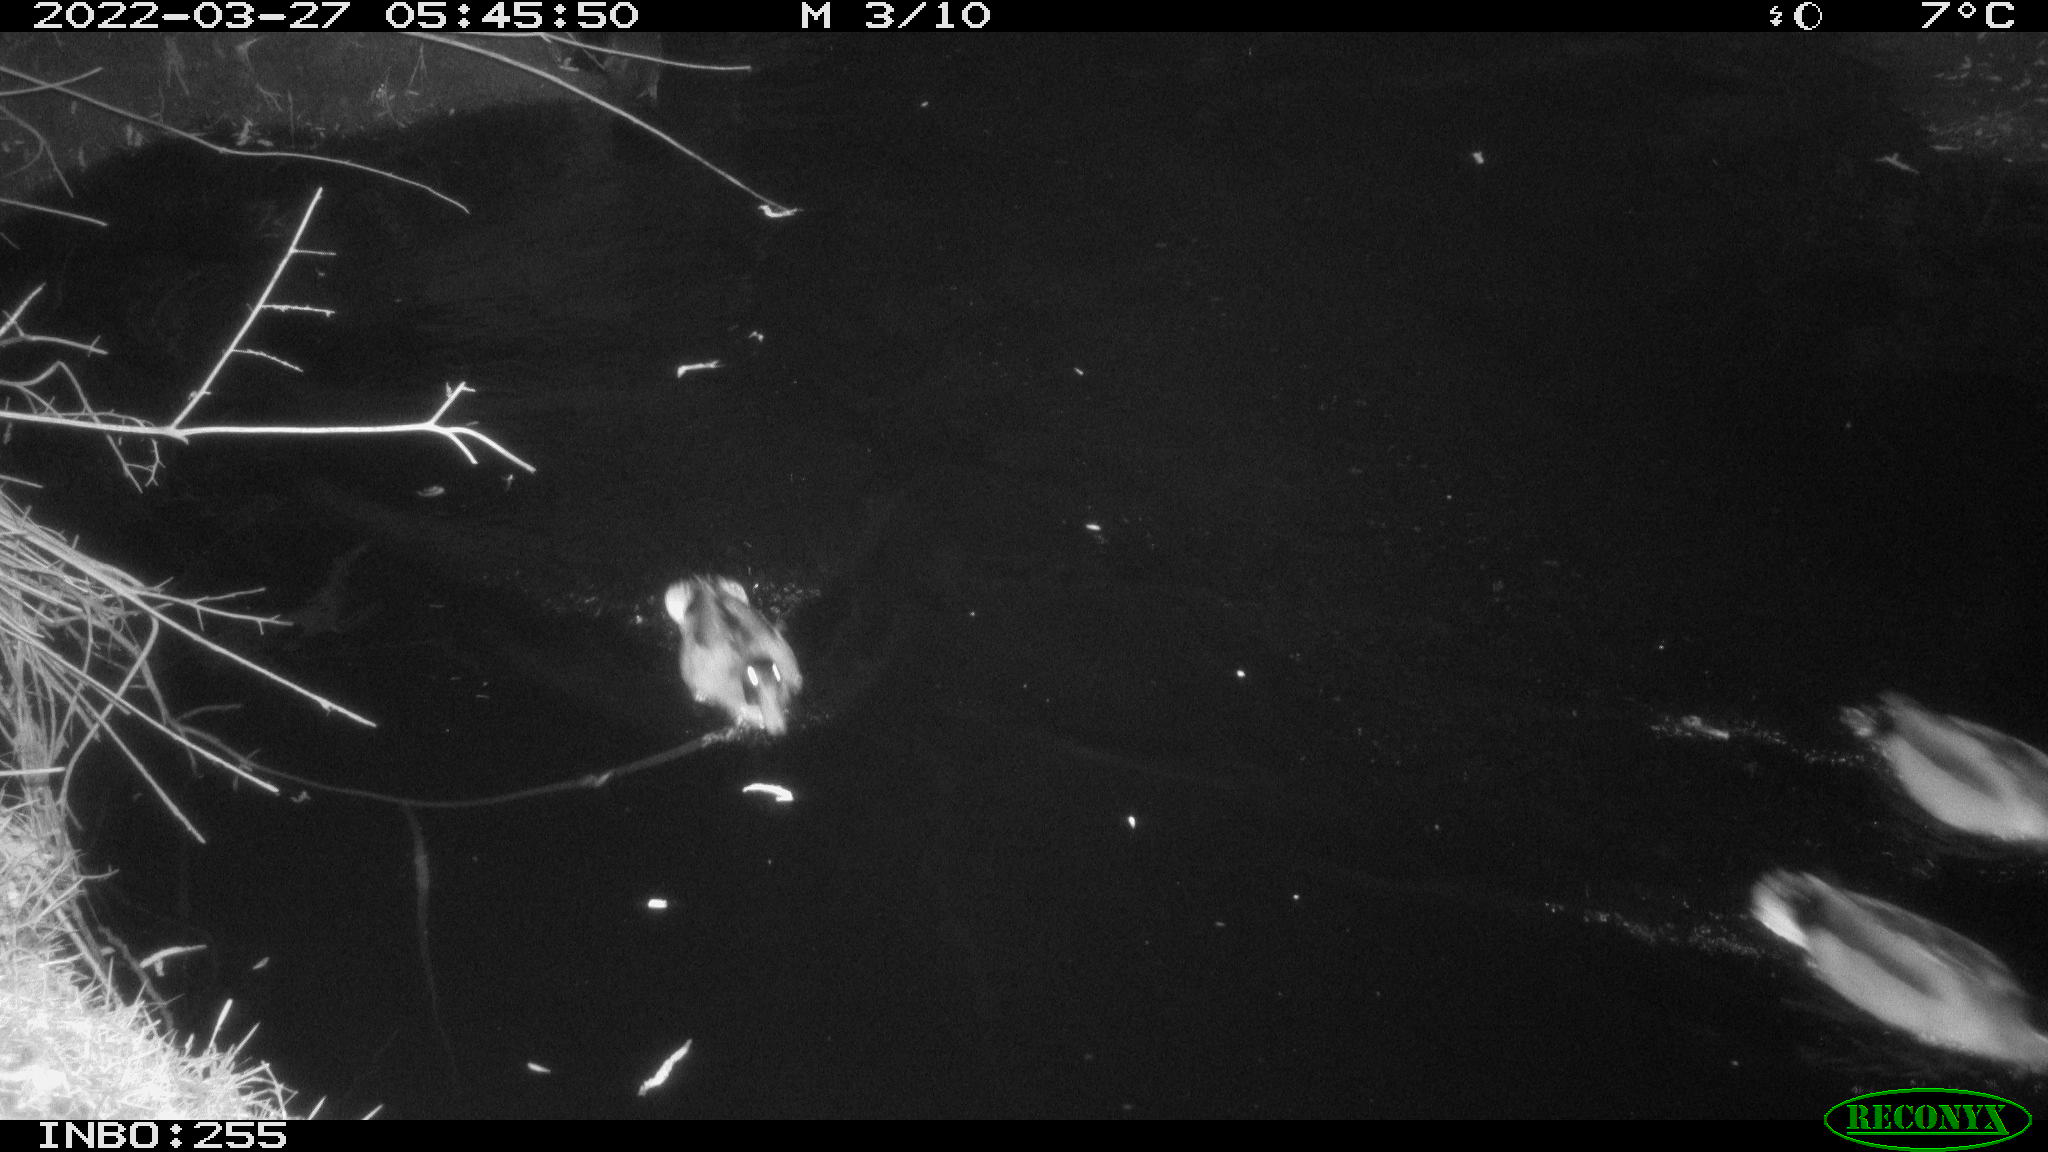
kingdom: Animalia
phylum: Chordata
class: Aves
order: Anseriformes
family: Anatidae
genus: Anas
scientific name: Anas platyrhynchos
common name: Mallard
